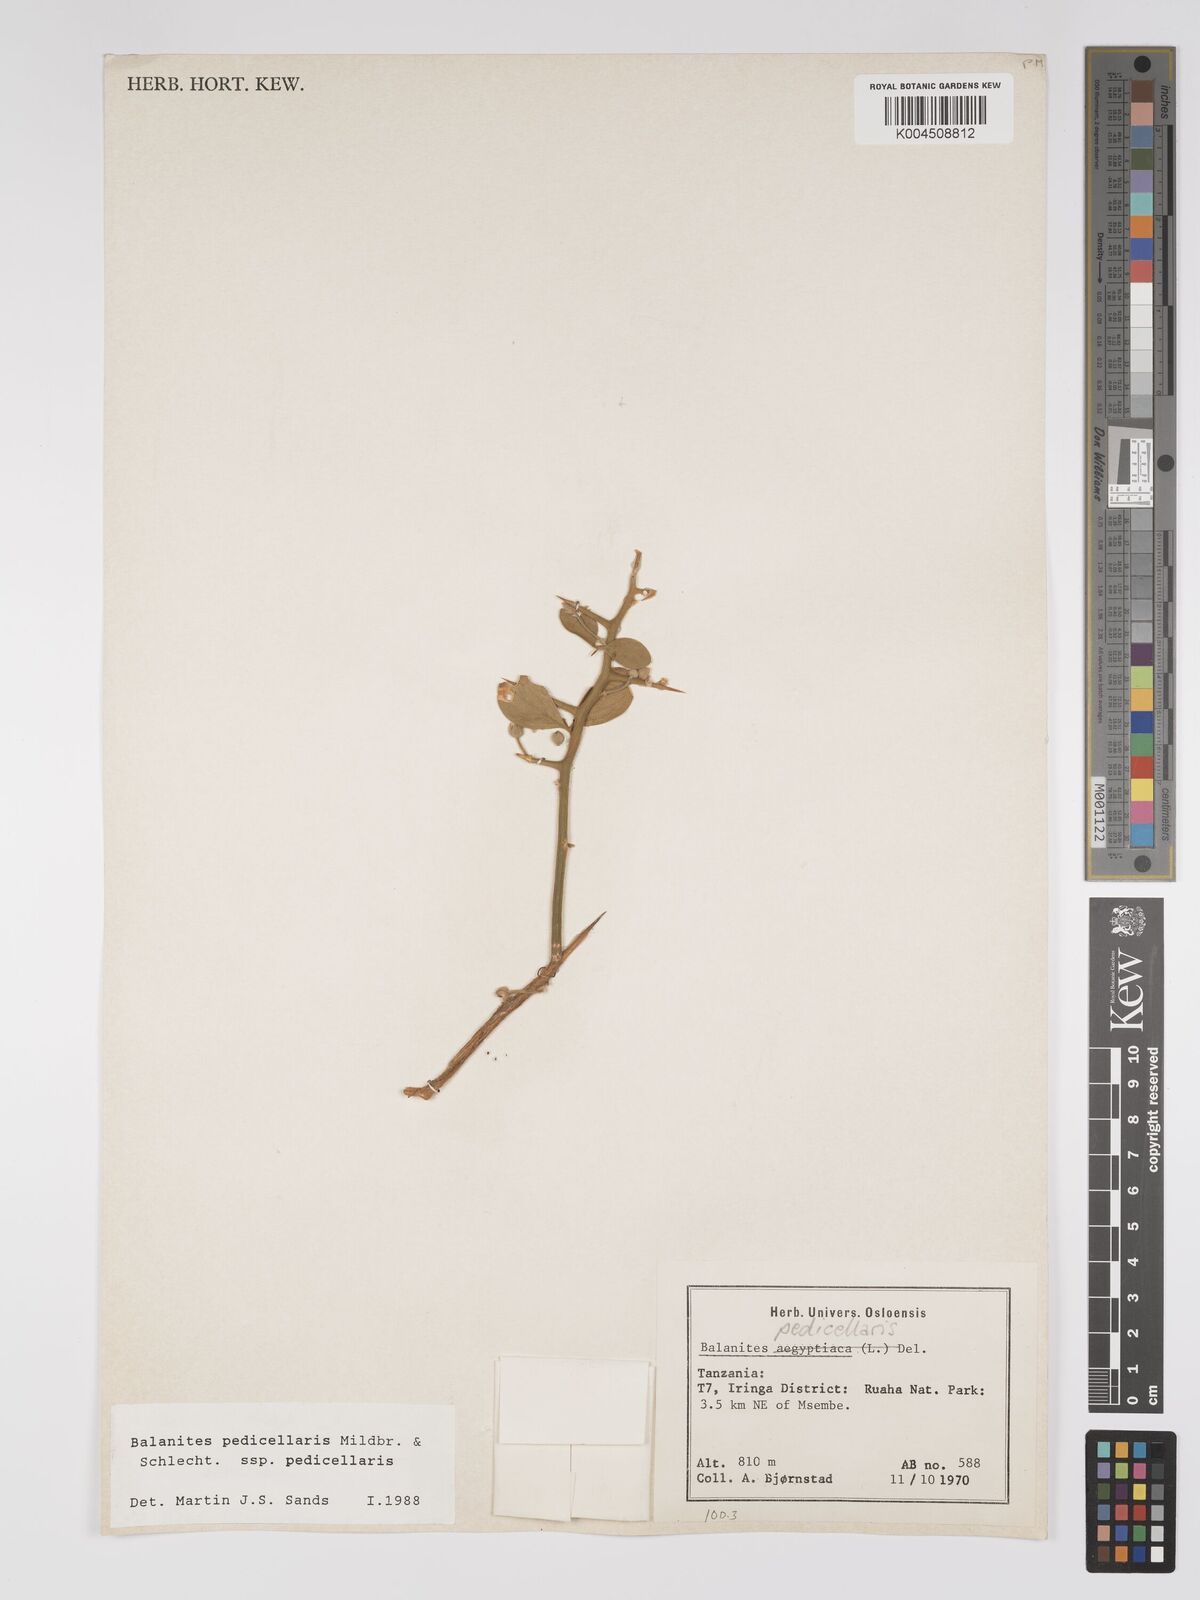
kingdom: Plantae
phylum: Tracheophyta
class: Magnoliopsida
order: Zygophyllales
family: Zygophyllaceae
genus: Balanites
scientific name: Balanites pedicellaris
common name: Small green-thorn
